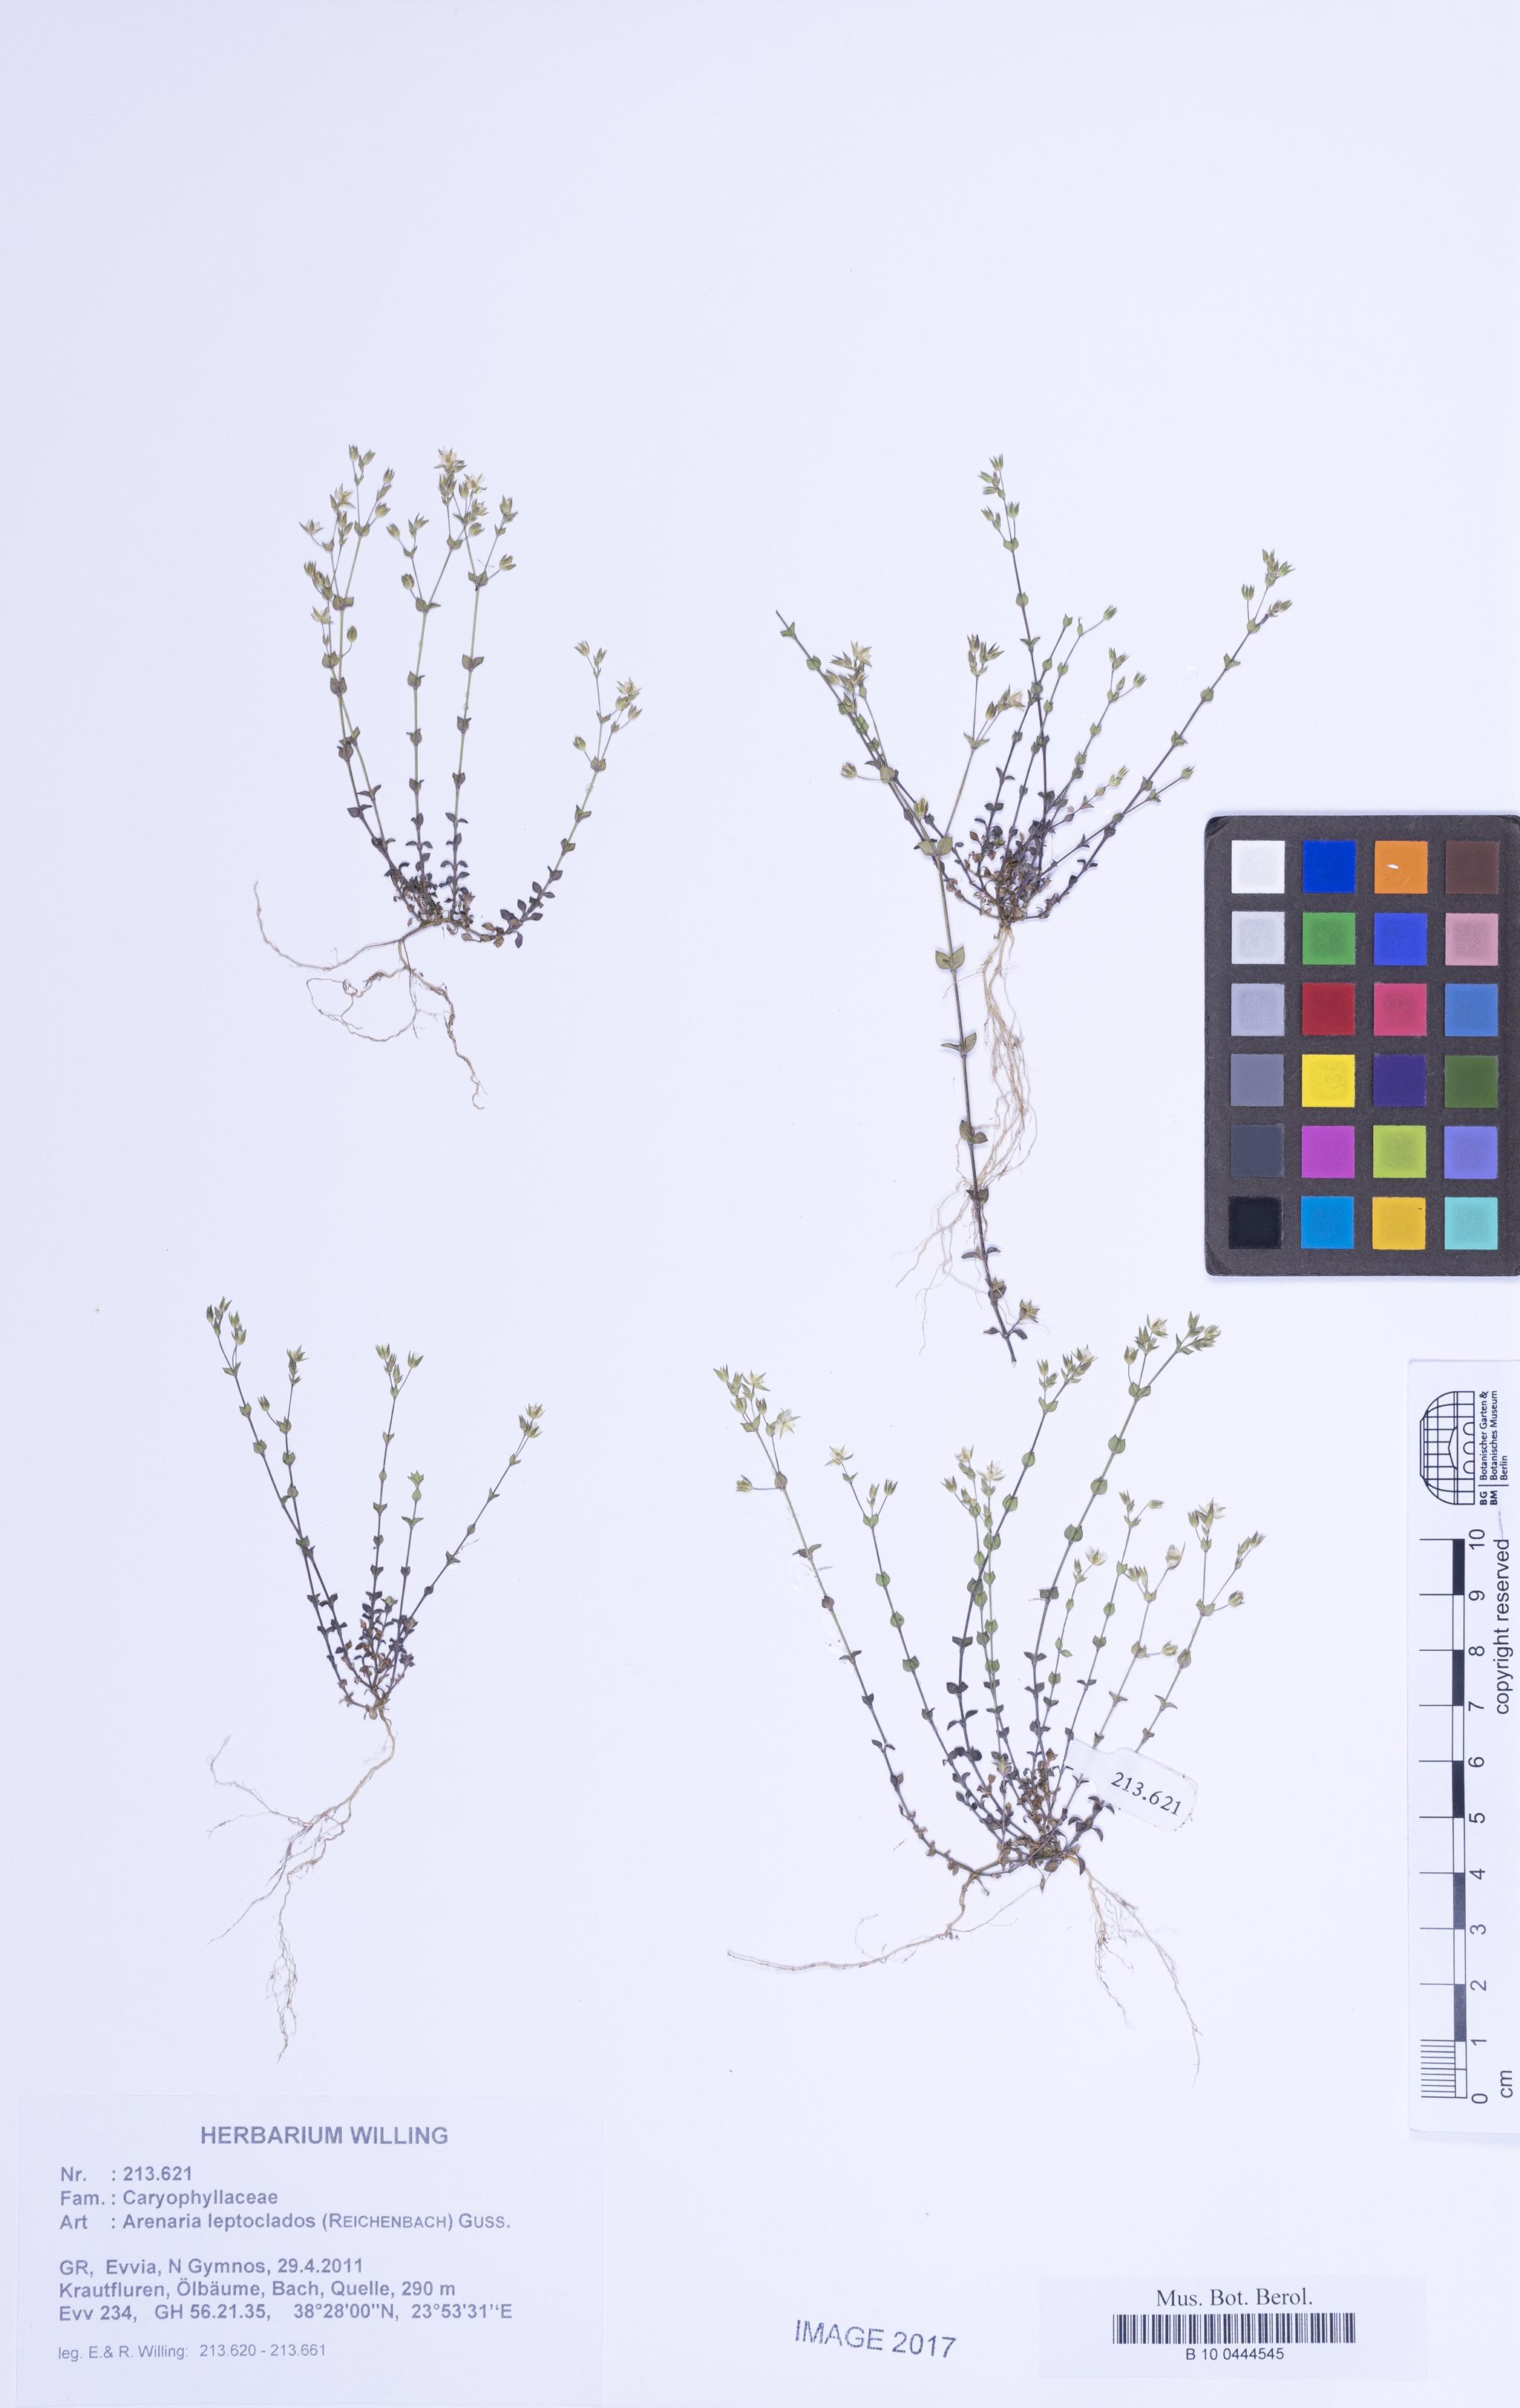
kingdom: Plantae
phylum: Tracheophyta
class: Magnoliopsida
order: Caryophyllales
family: Caryophyllaceae
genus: Arenaria
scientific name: Arenaria leptoclados
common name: Thyme-leaved sandwort
